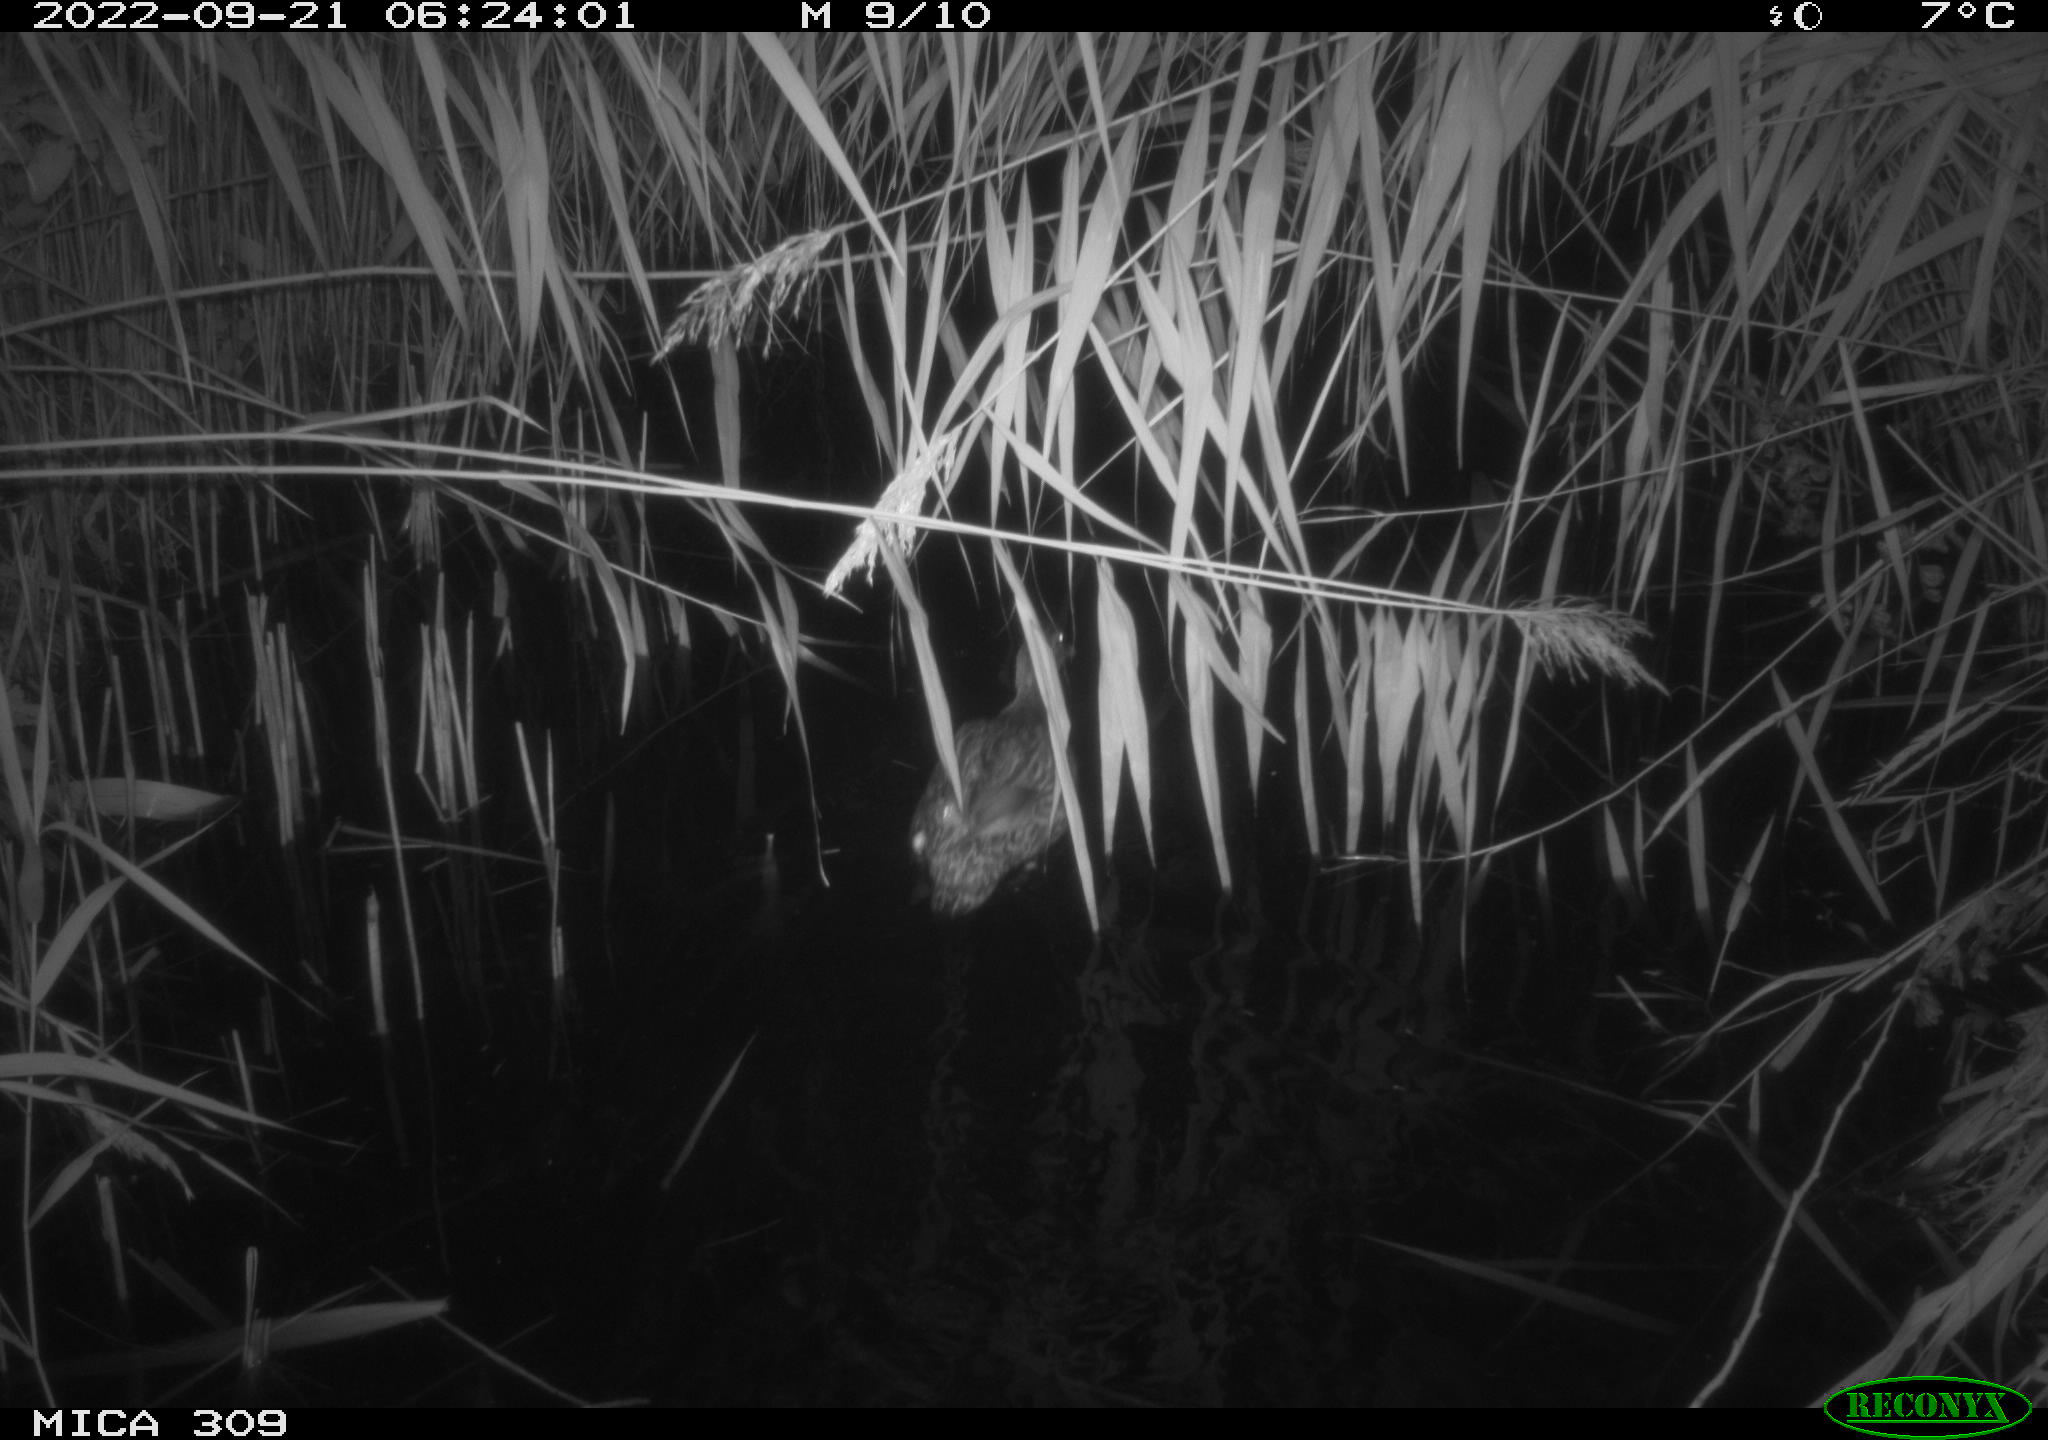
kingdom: Animalia
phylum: Chordata
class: Aves
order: Anseriformes
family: Anatidae
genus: Anas
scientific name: Anas
